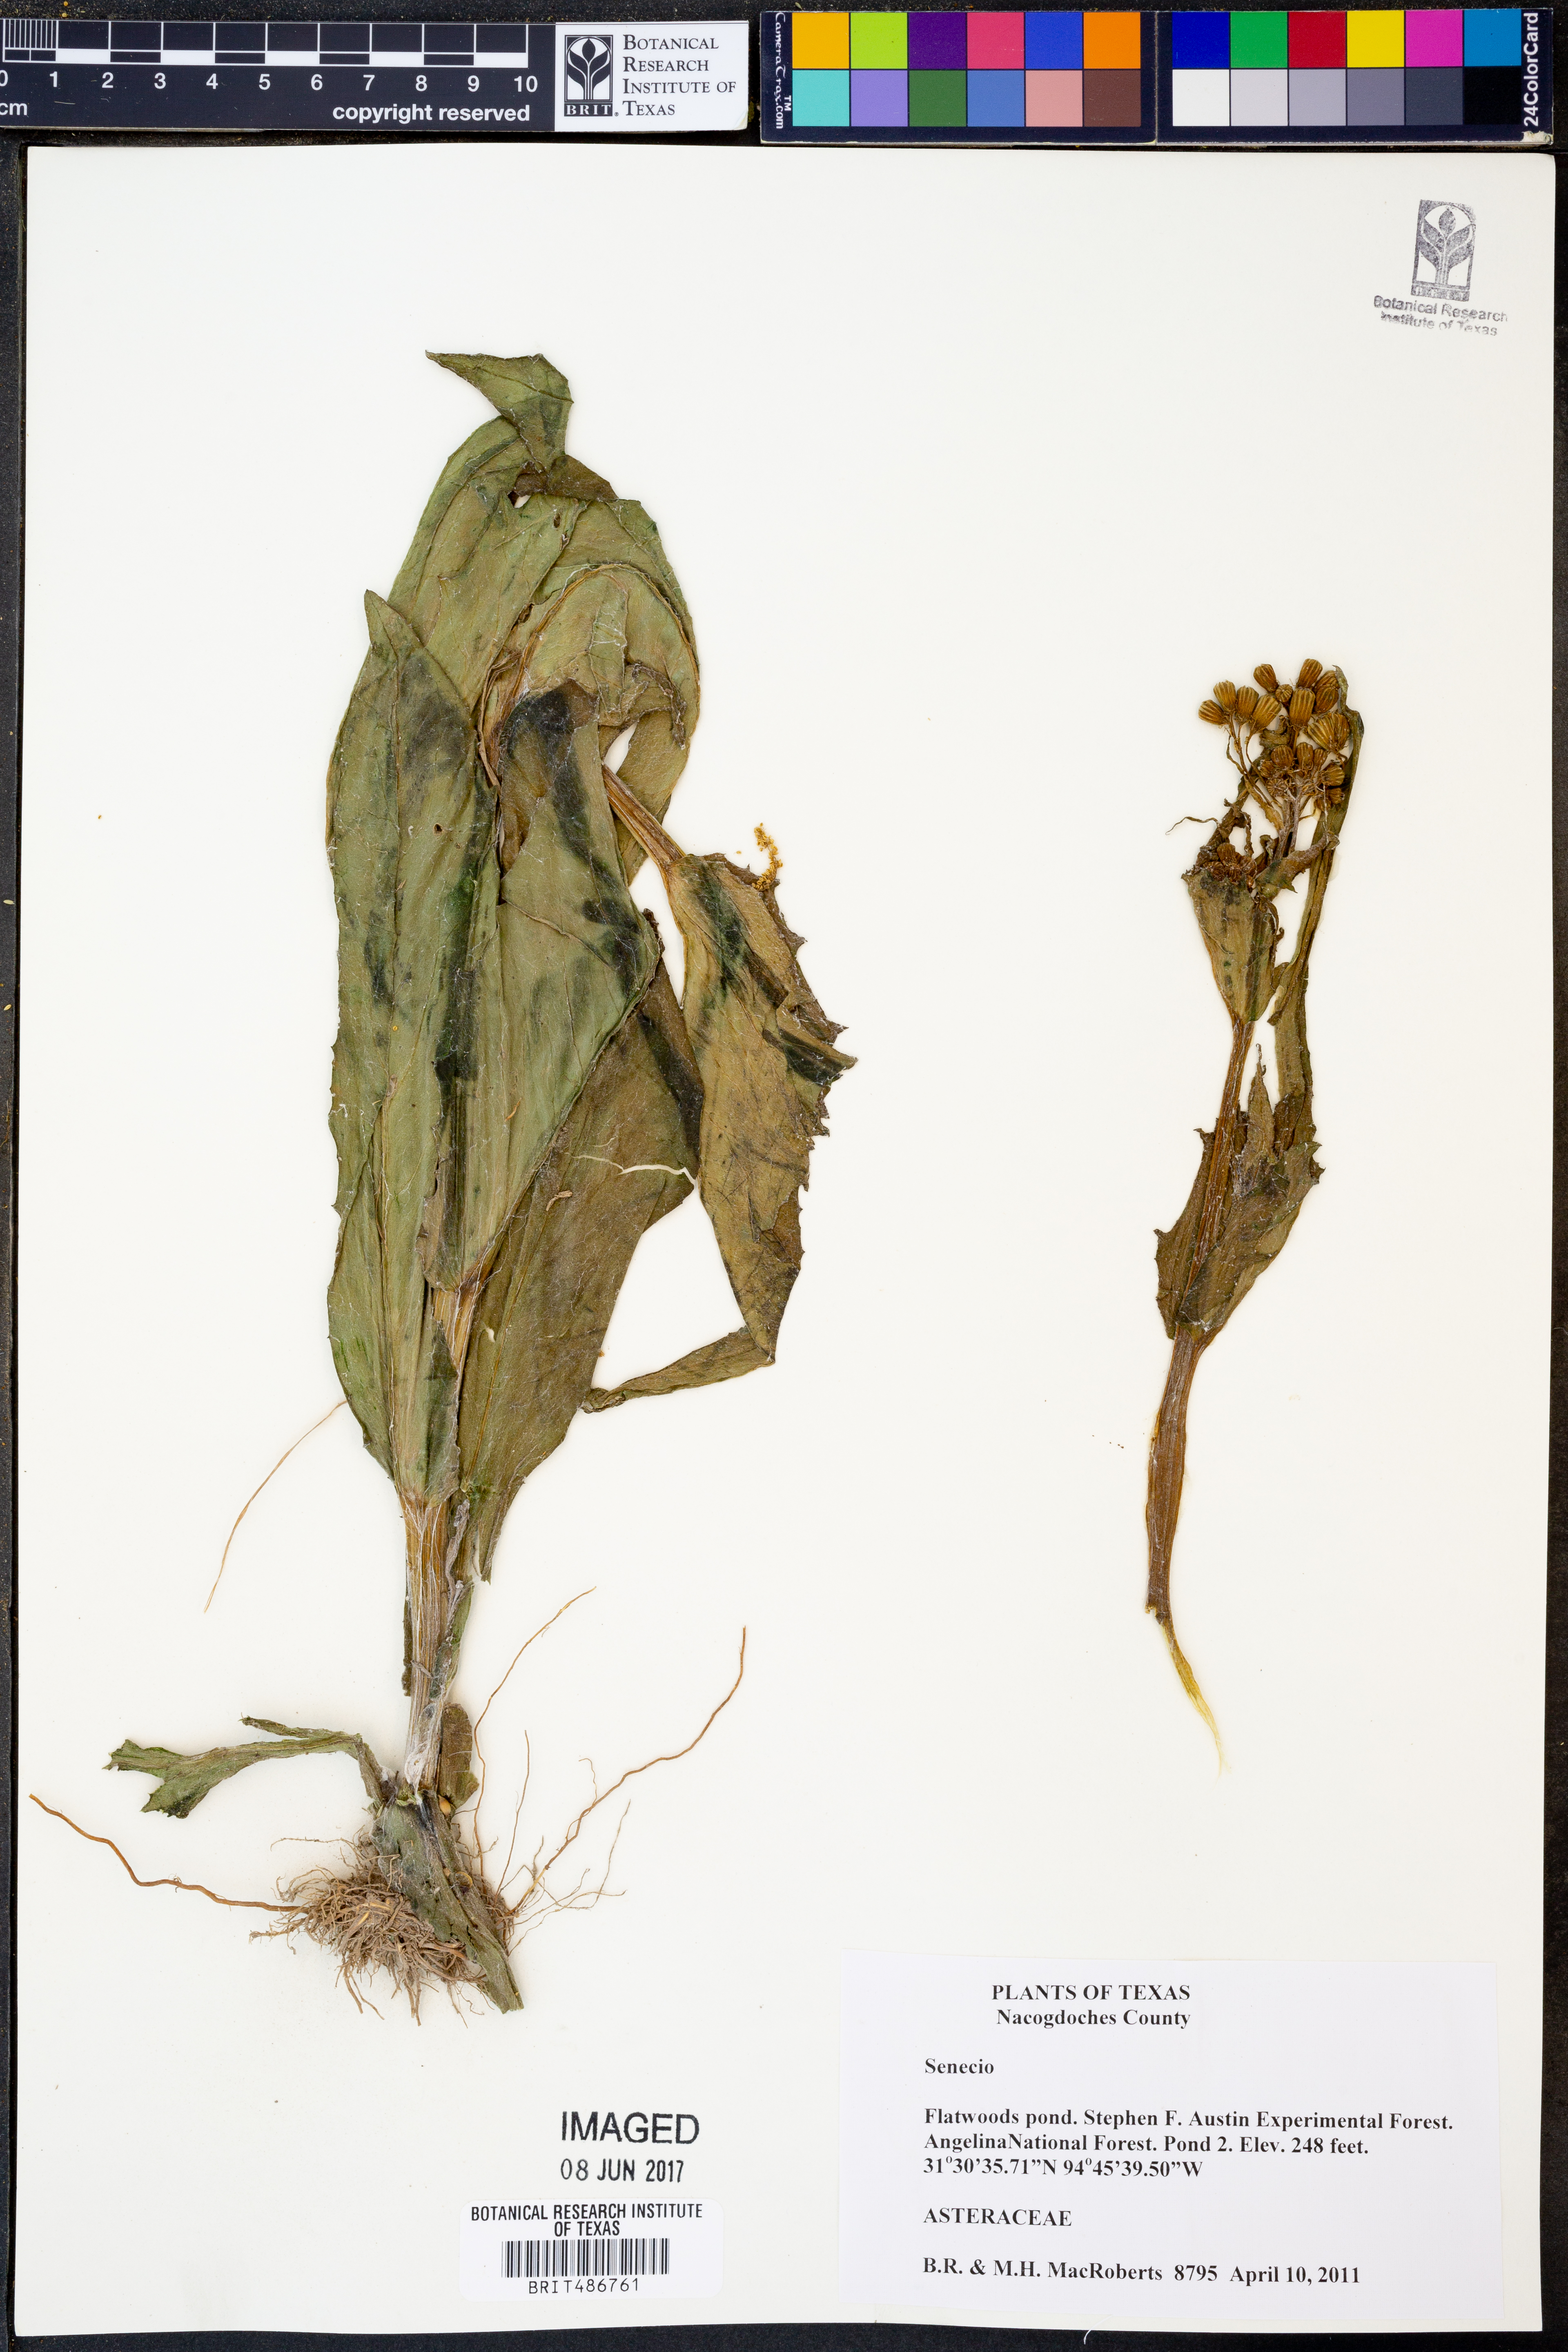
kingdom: Plantae
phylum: Tracheophyta
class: Magnoliopsida
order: Asterales
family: Asteraceae
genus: Senecio
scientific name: Senecio
